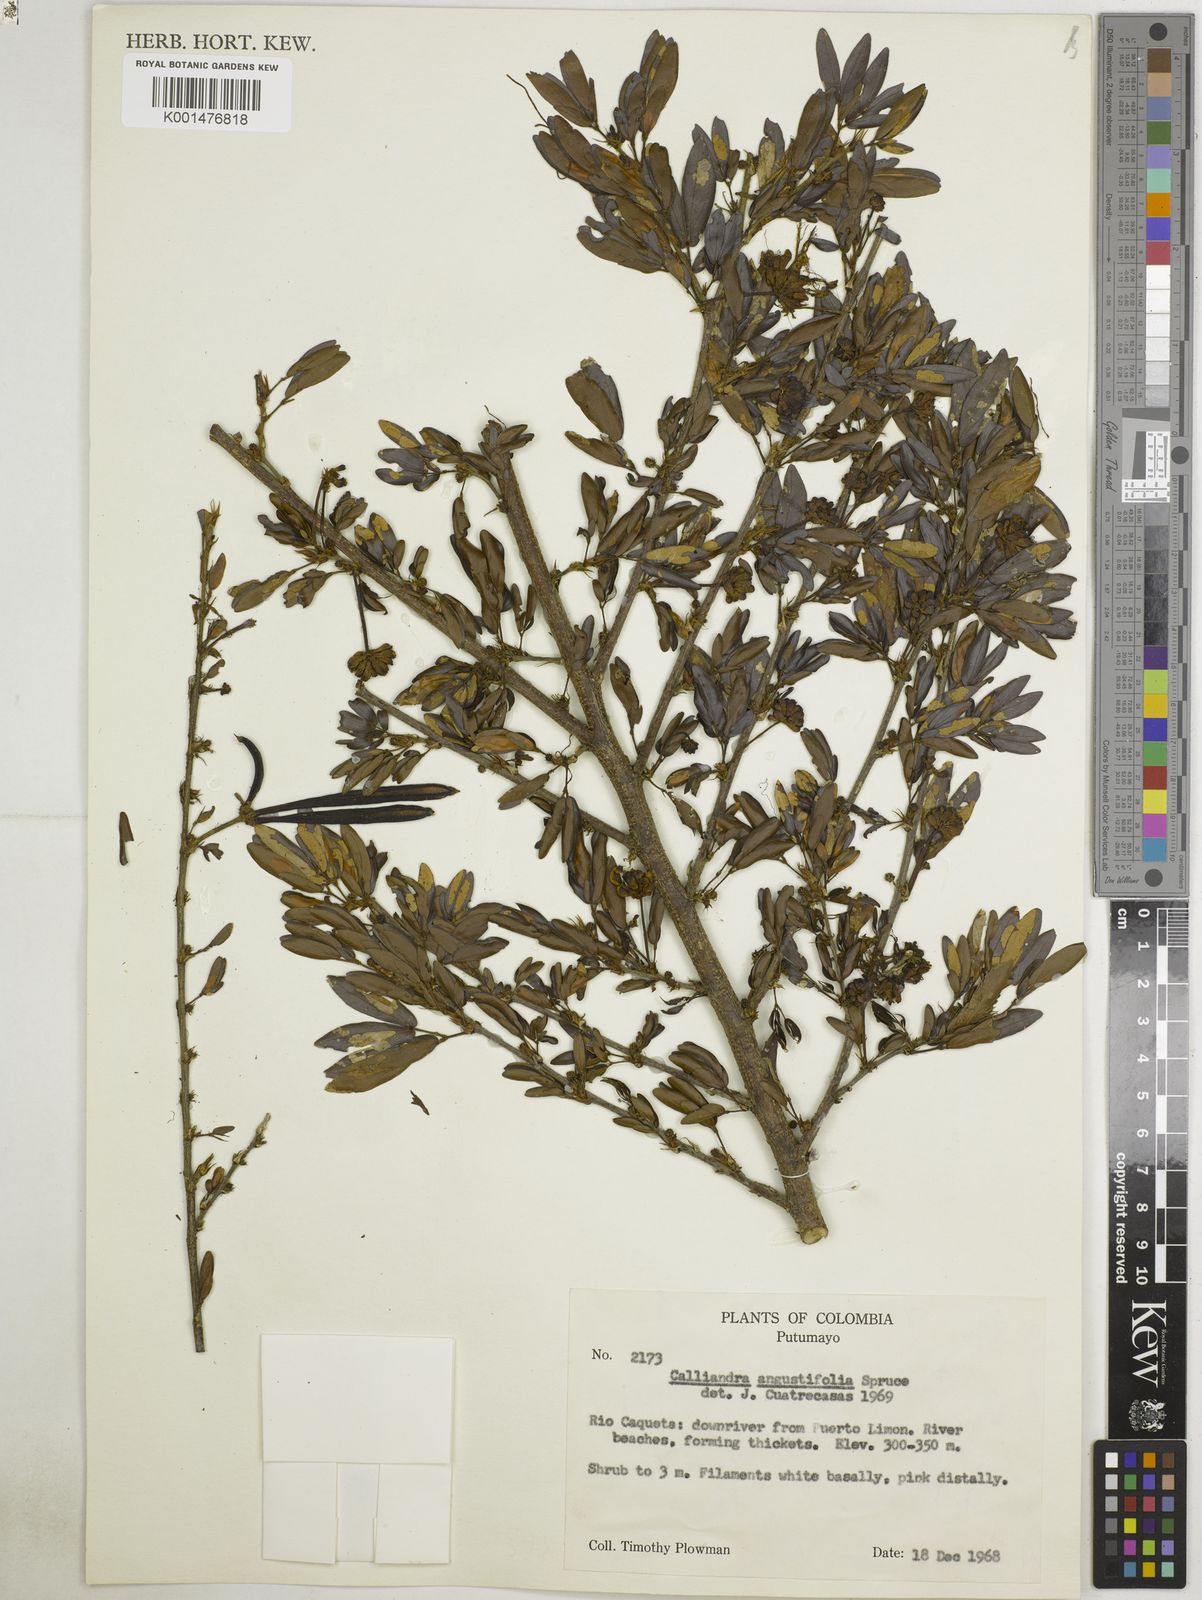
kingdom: Plantae
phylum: Tracheophyta
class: Magnoliopsida
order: Fabales
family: Fabaceae
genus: Calliandra
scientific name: Calliandra angustifolia
